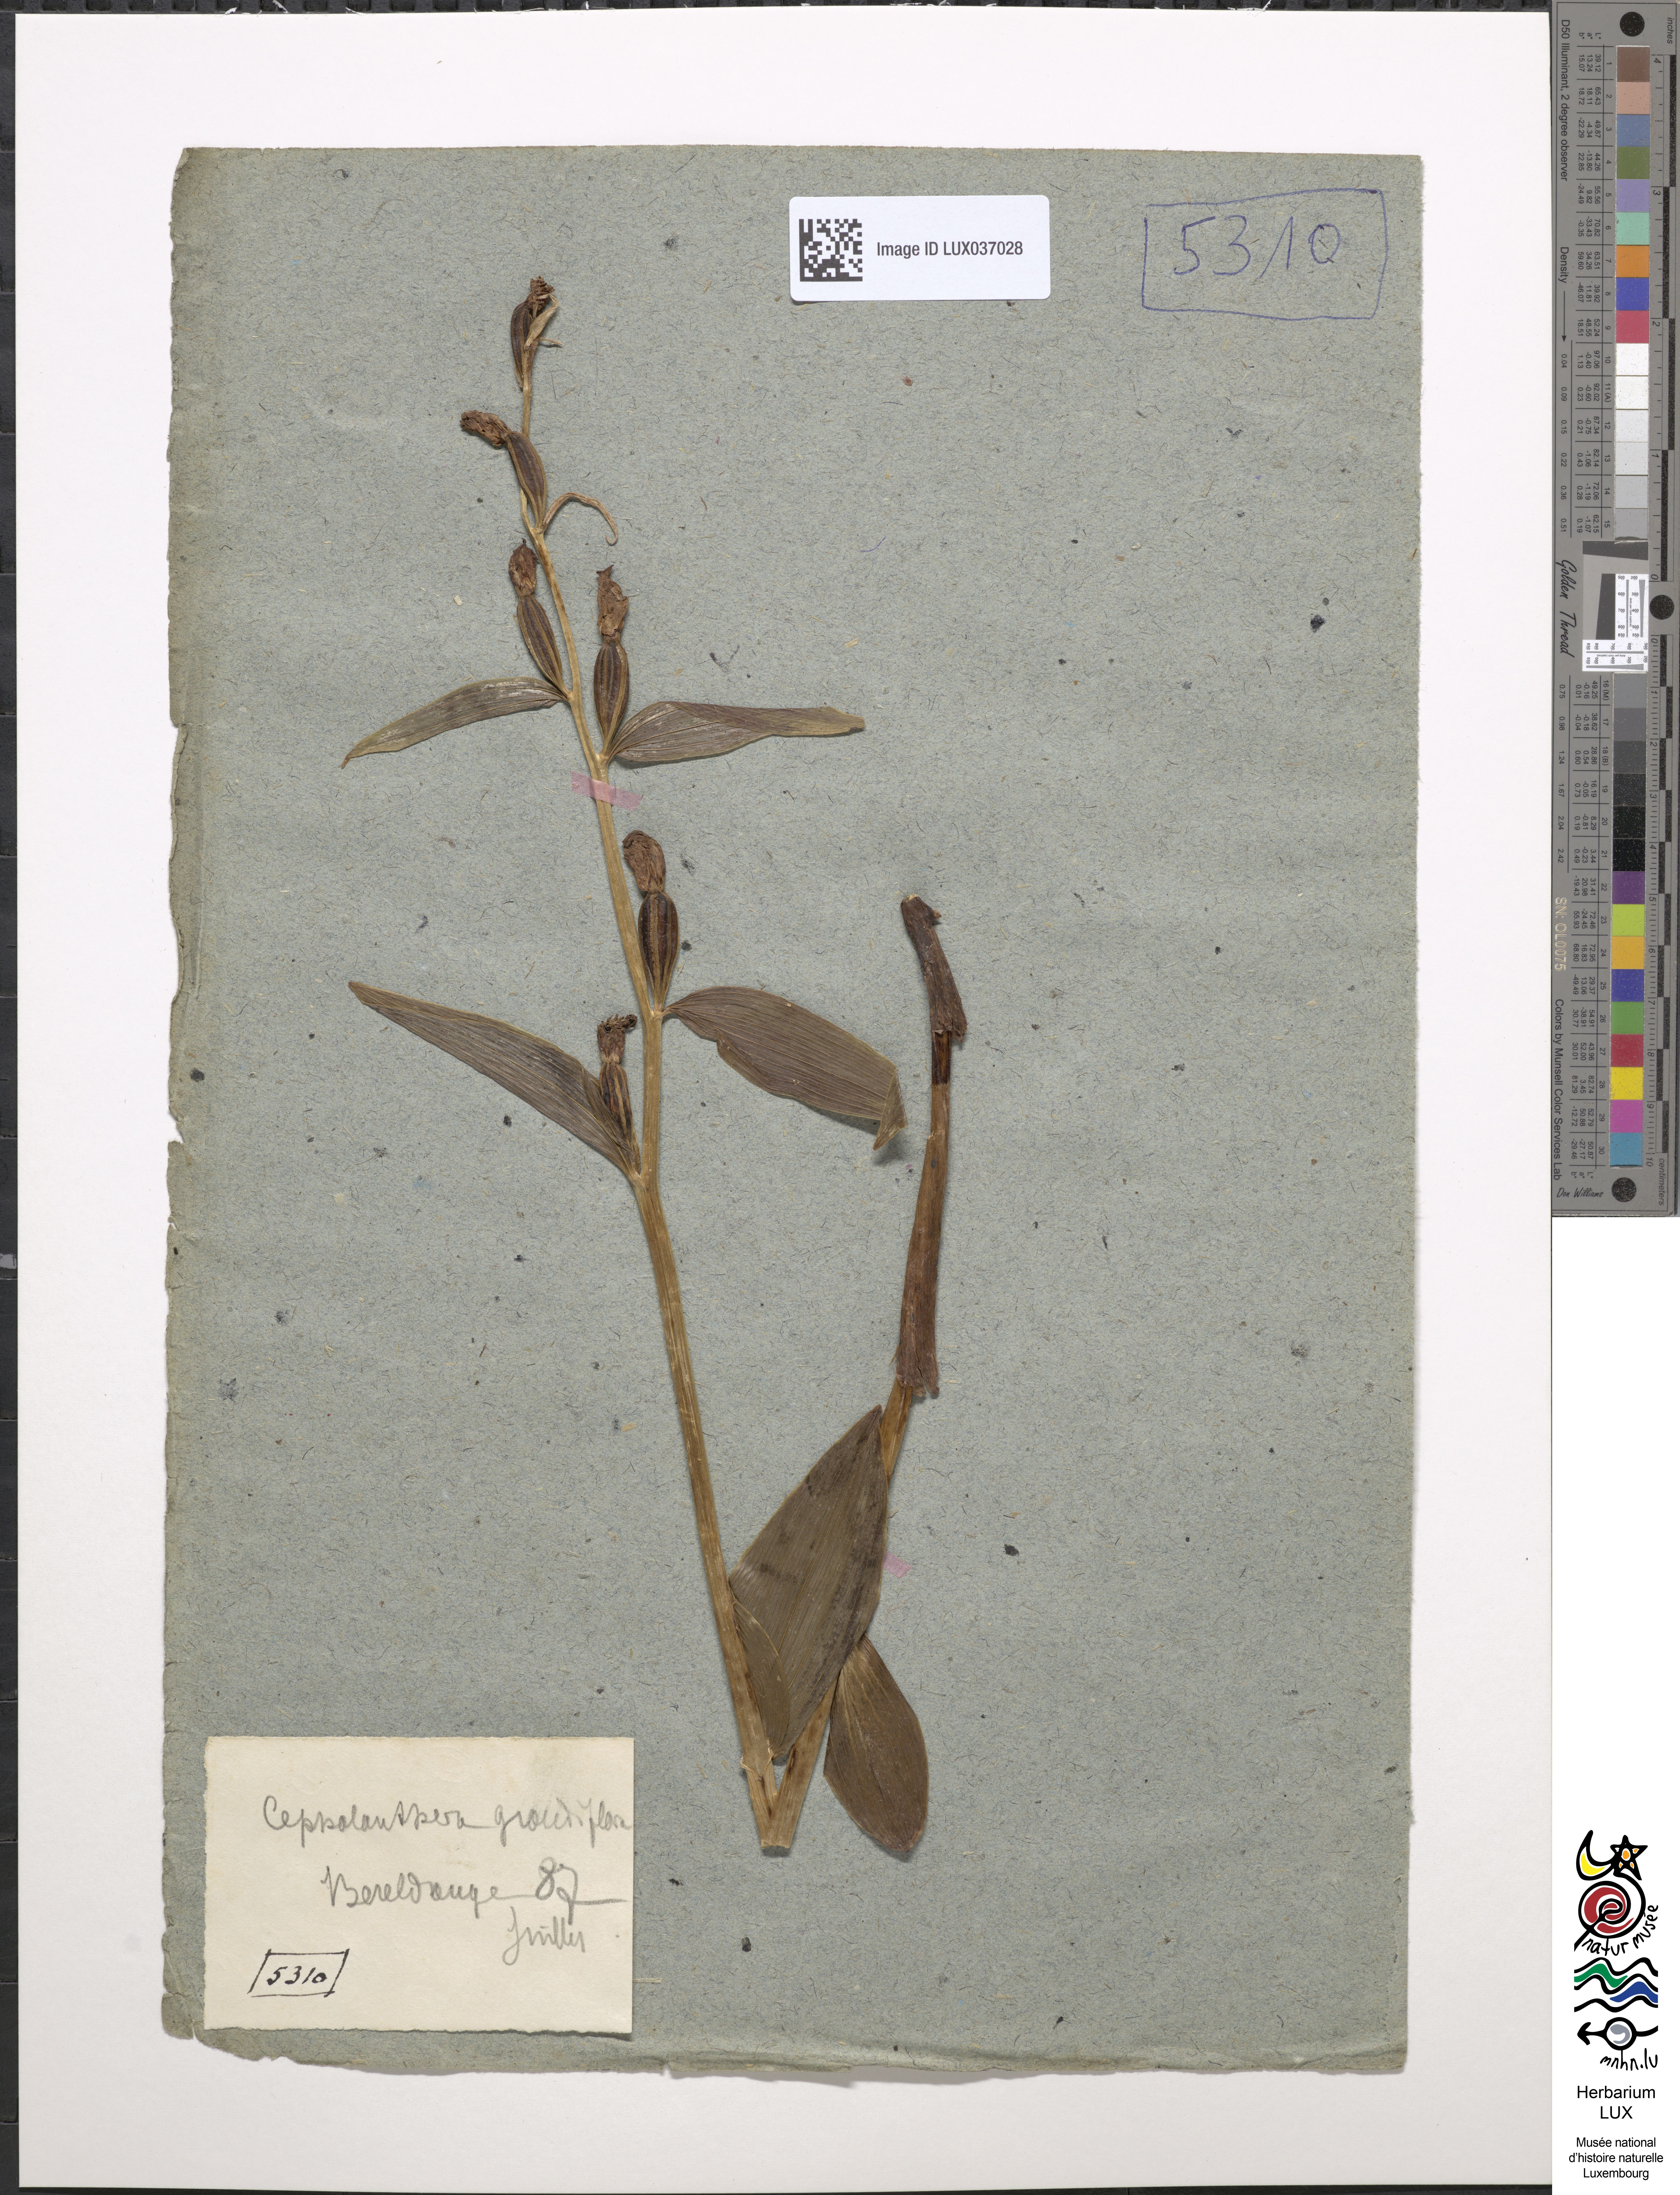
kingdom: Plantae
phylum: Tracheophyta
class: Liliopsida
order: Asparagales
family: Orchidaceae
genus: Cephalanthera
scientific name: Cephalanthera damasonium
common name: White helleborine
